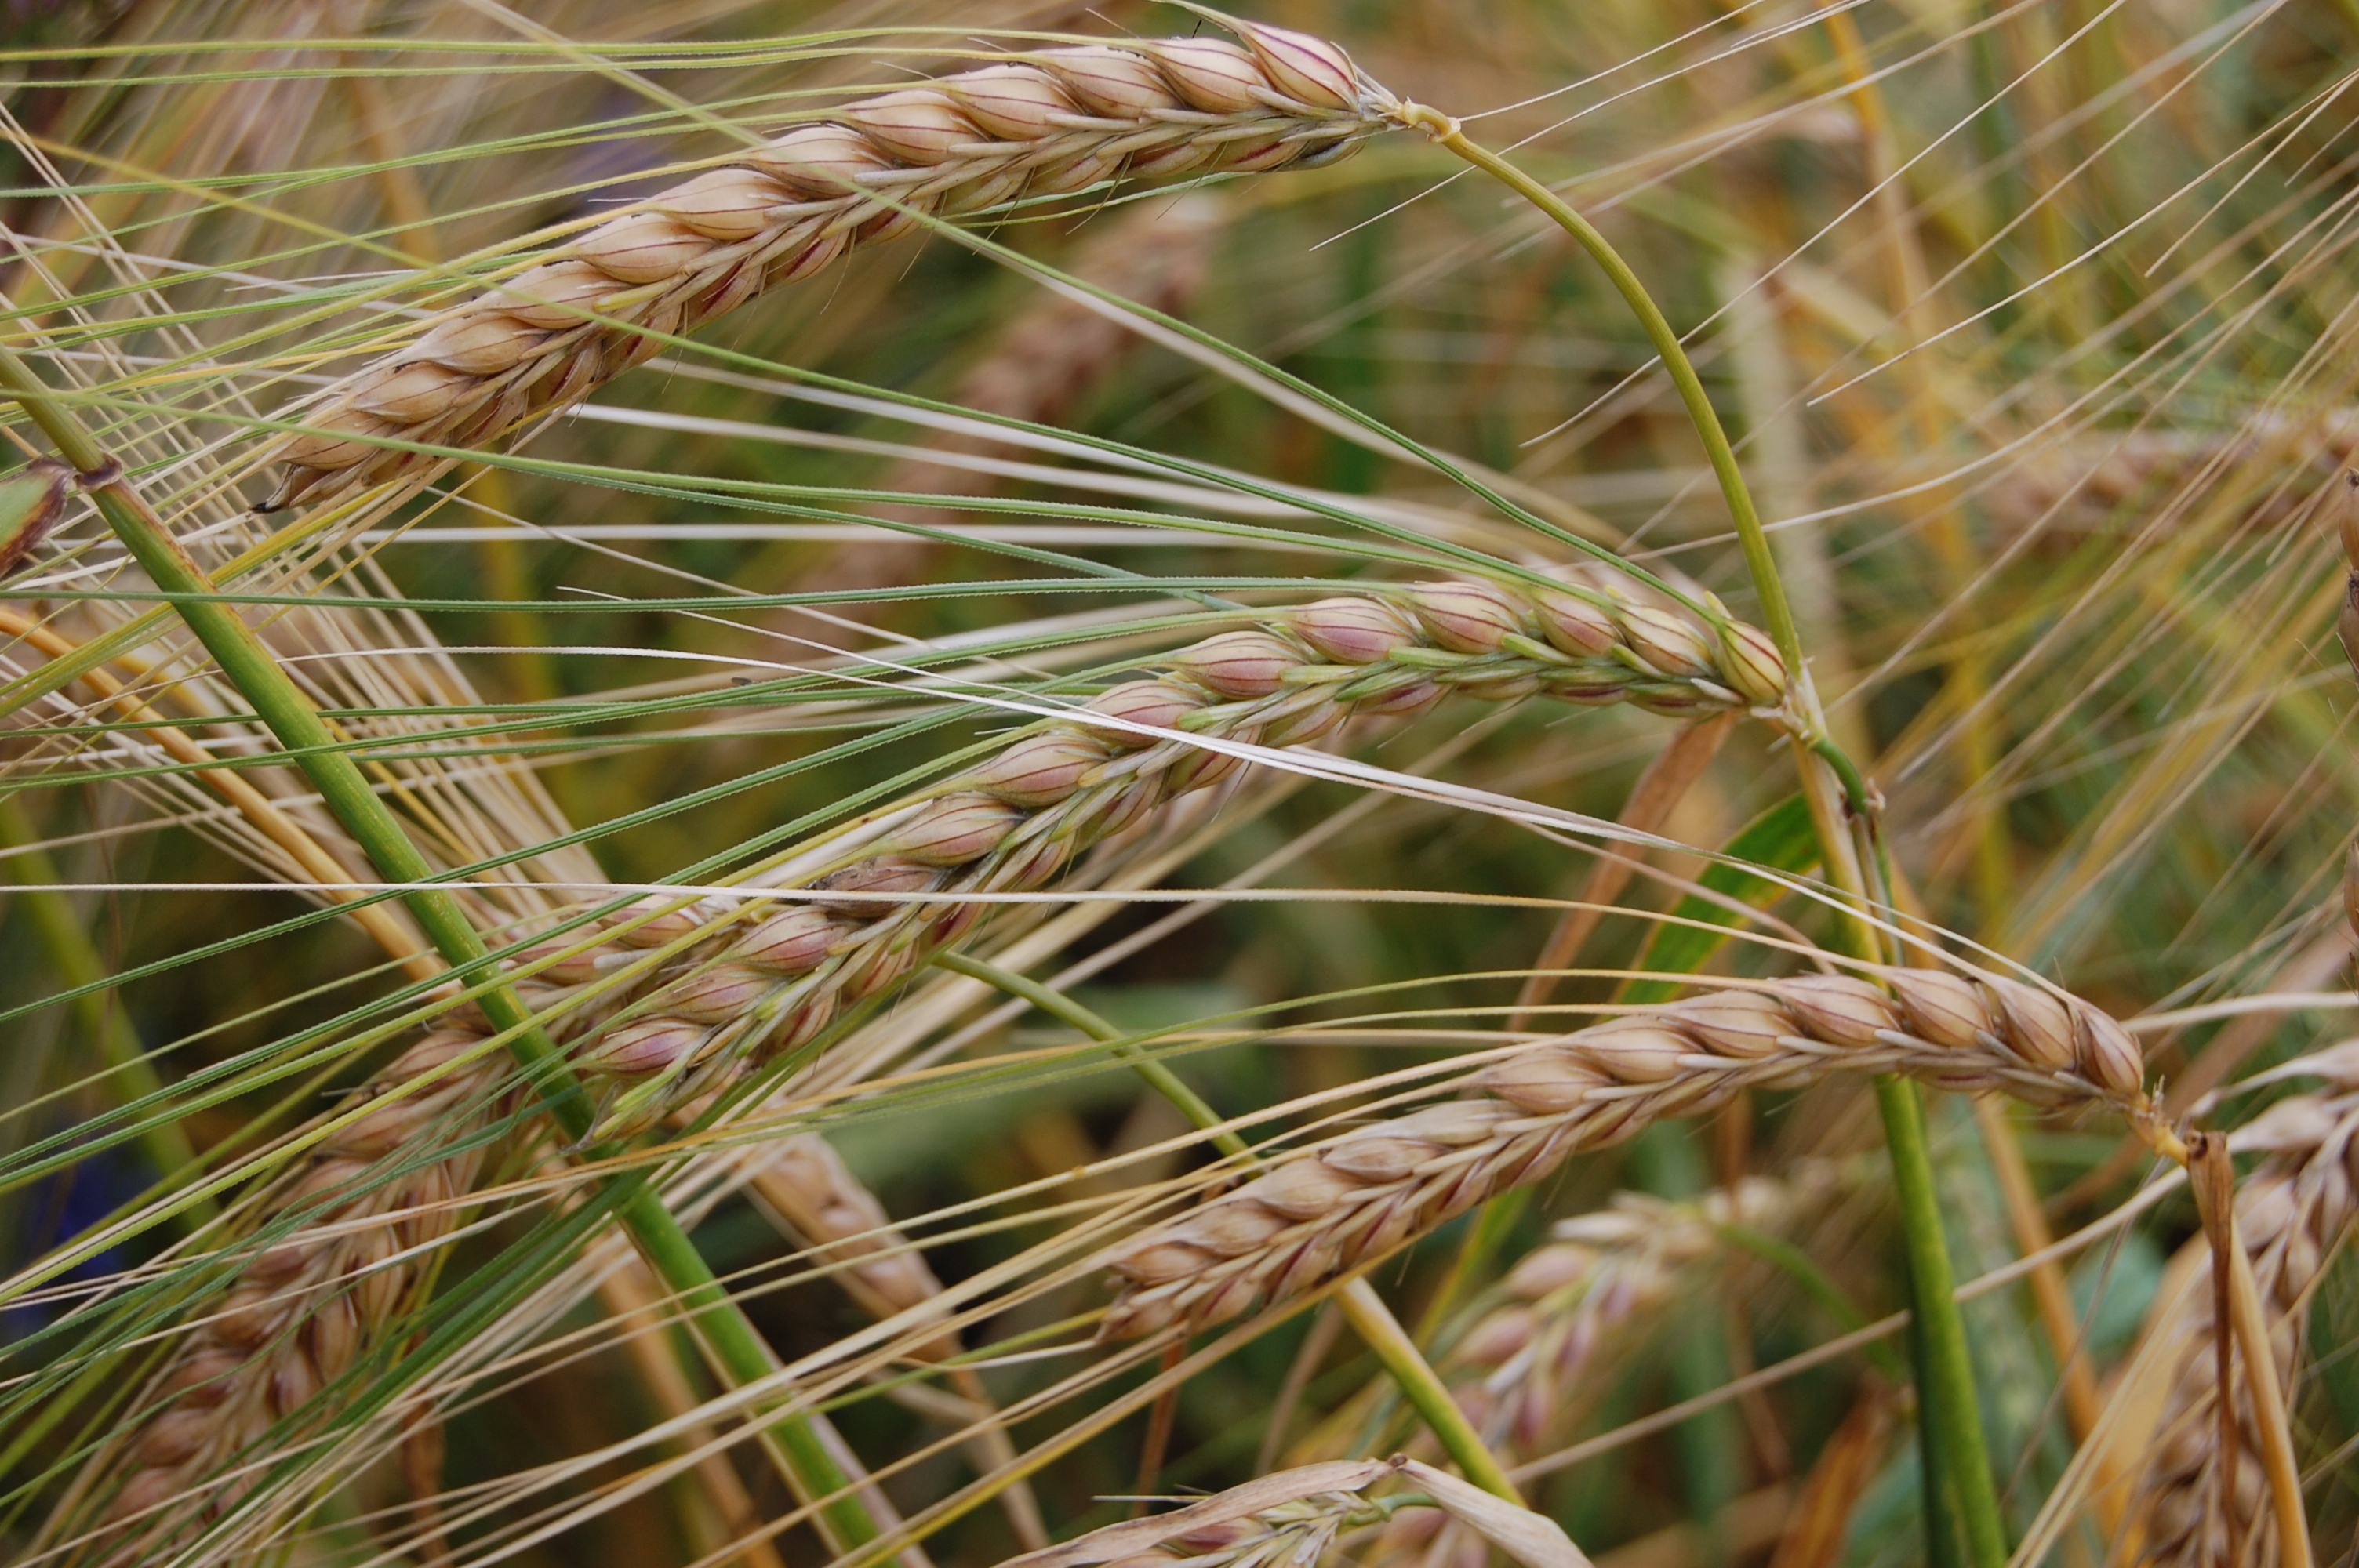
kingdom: Plantae
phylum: Tracheophyta
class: Liliopsida
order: Poales
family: Poaceae
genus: Hordeum
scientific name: Hordeum vulgare
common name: Common barley
